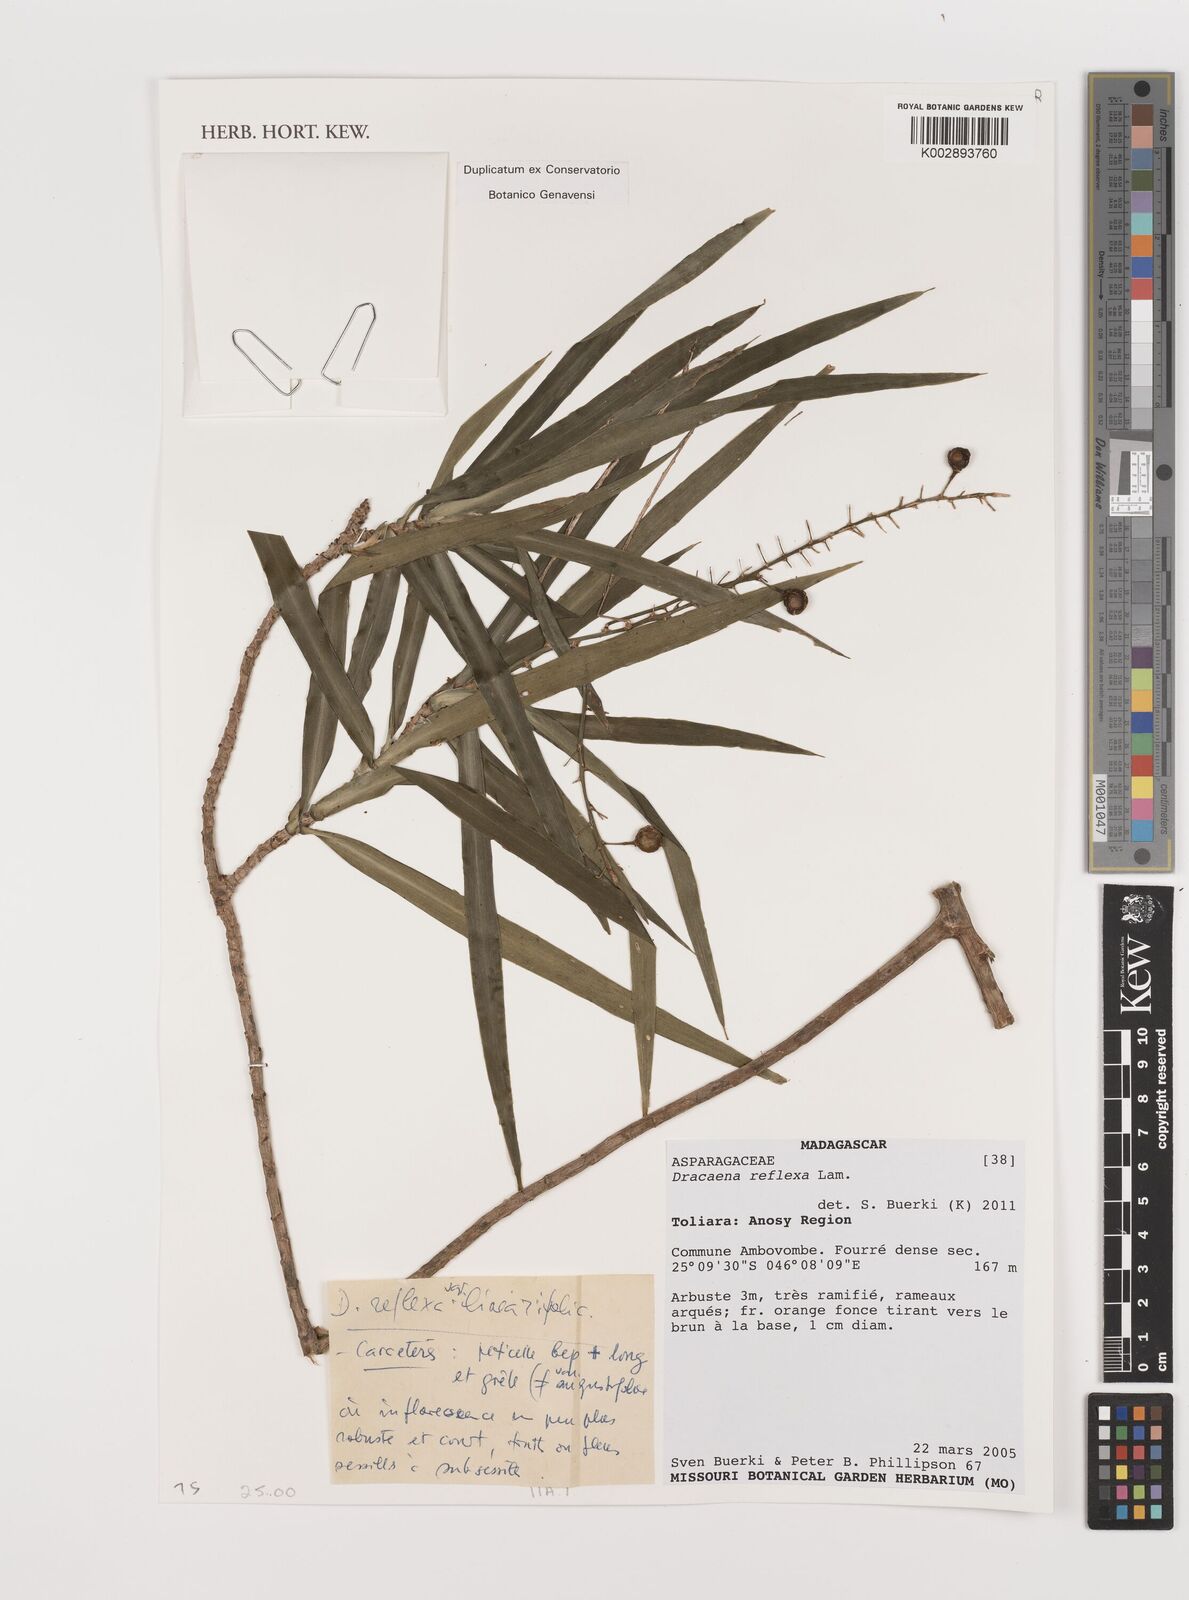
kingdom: Plantae
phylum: Tracheophyta
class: Liliopsida
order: Asparagales
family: Asparagaceae
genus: Dracaena
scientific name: Dracaena reflexa
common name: Song-of-india
